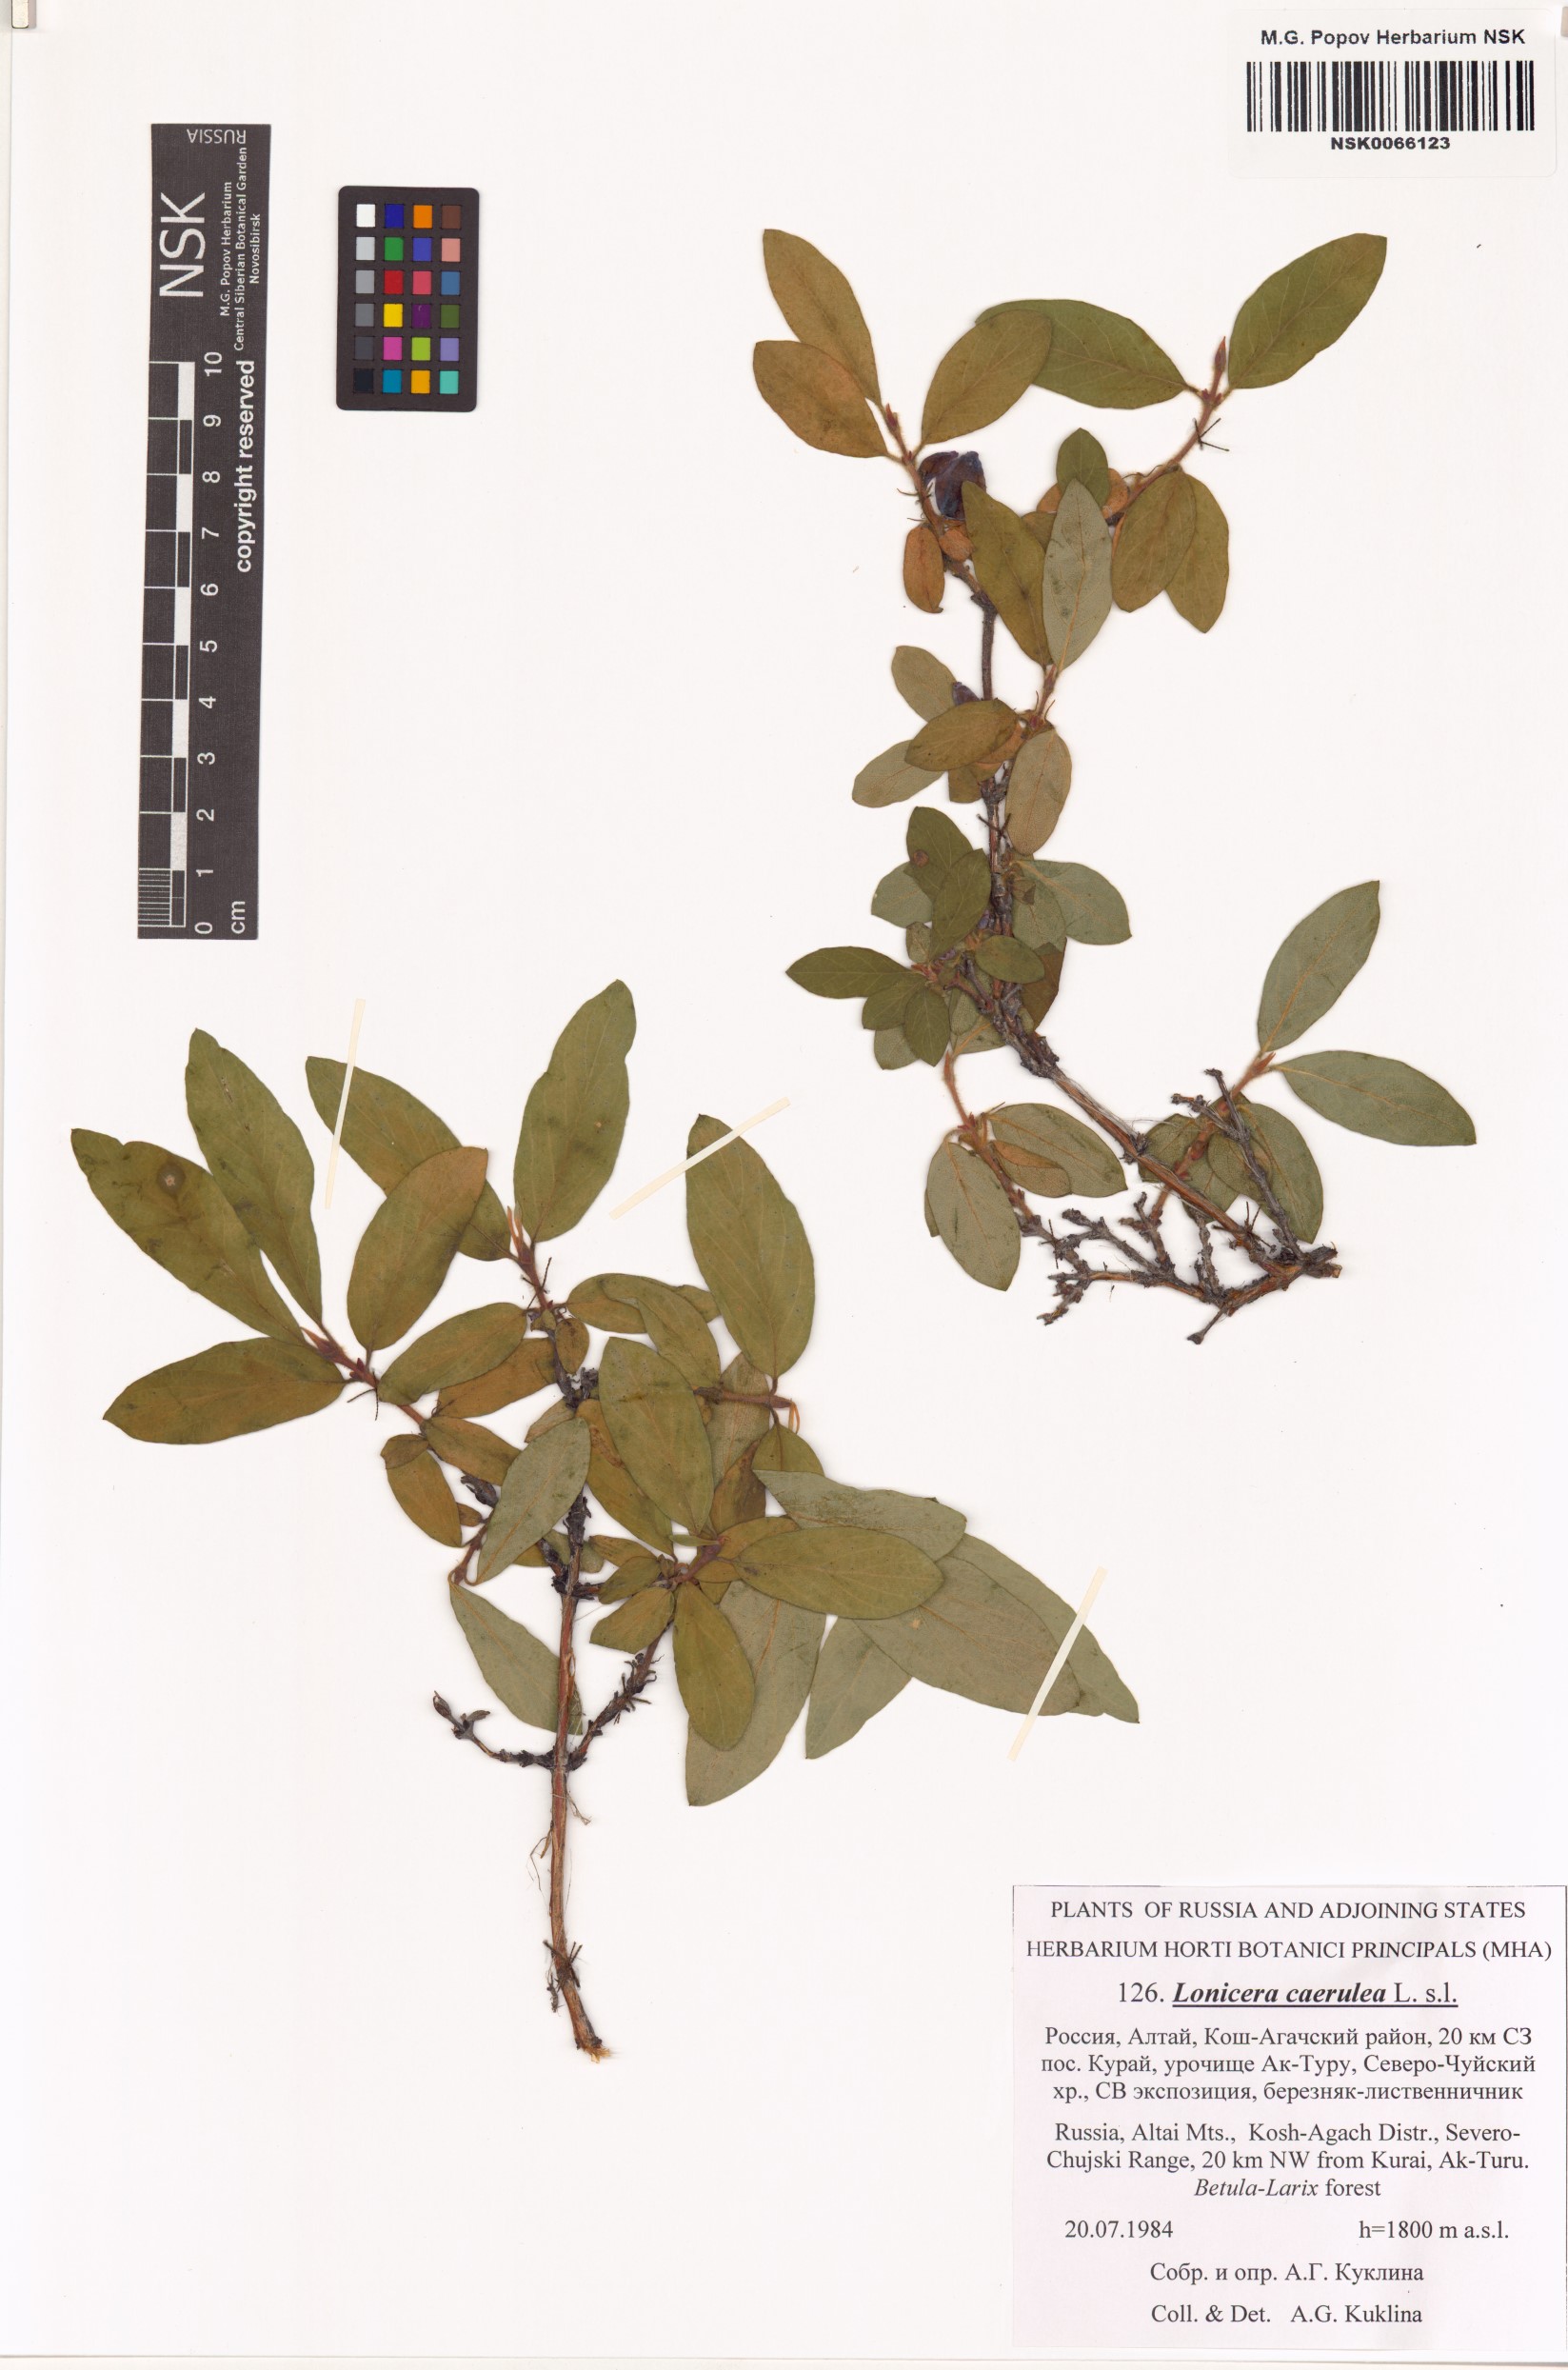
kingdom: Plantae
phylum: Tracheophyta
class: Magnoliopsida
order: Dipsacales
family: Caprifoliaceae
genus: Lonicera
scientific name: Lonicera caerulea
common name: Blue honeysuckle
